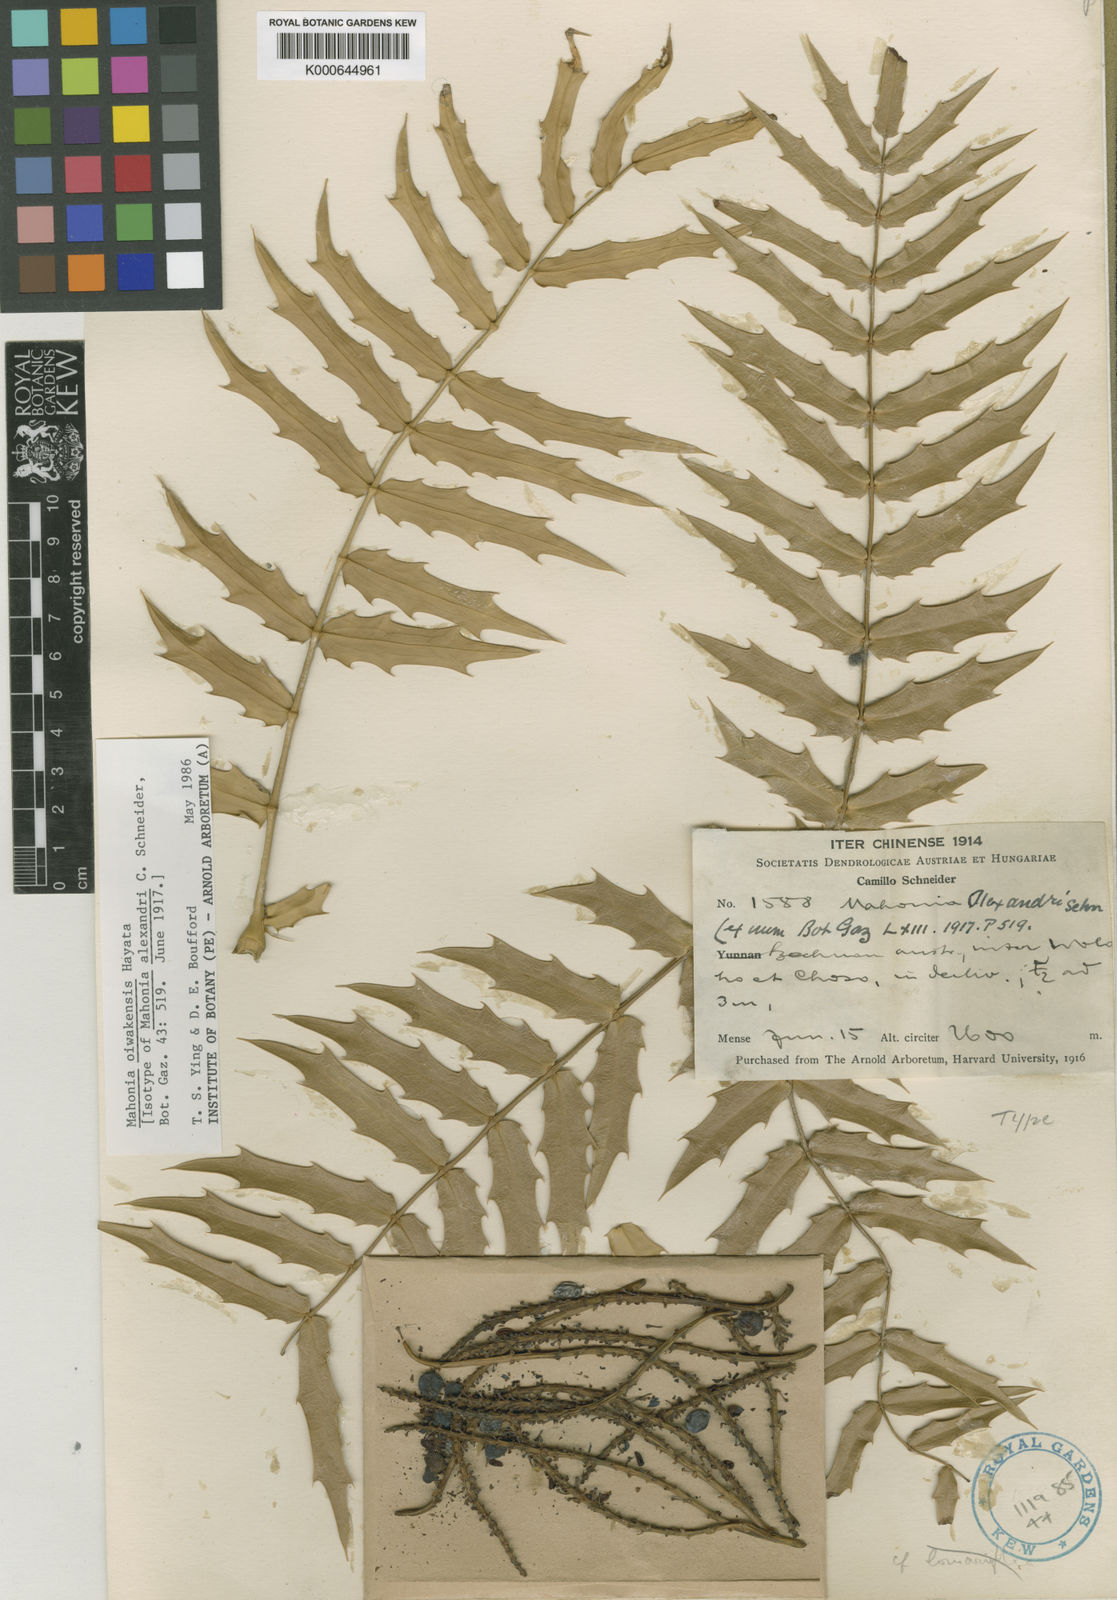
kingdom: Plantae
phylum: Tracheophyta
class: Magnoliopsida
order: Ranunculales
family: Berberidaceae
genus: Mahonia
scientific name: Mahonia oiwakensis
